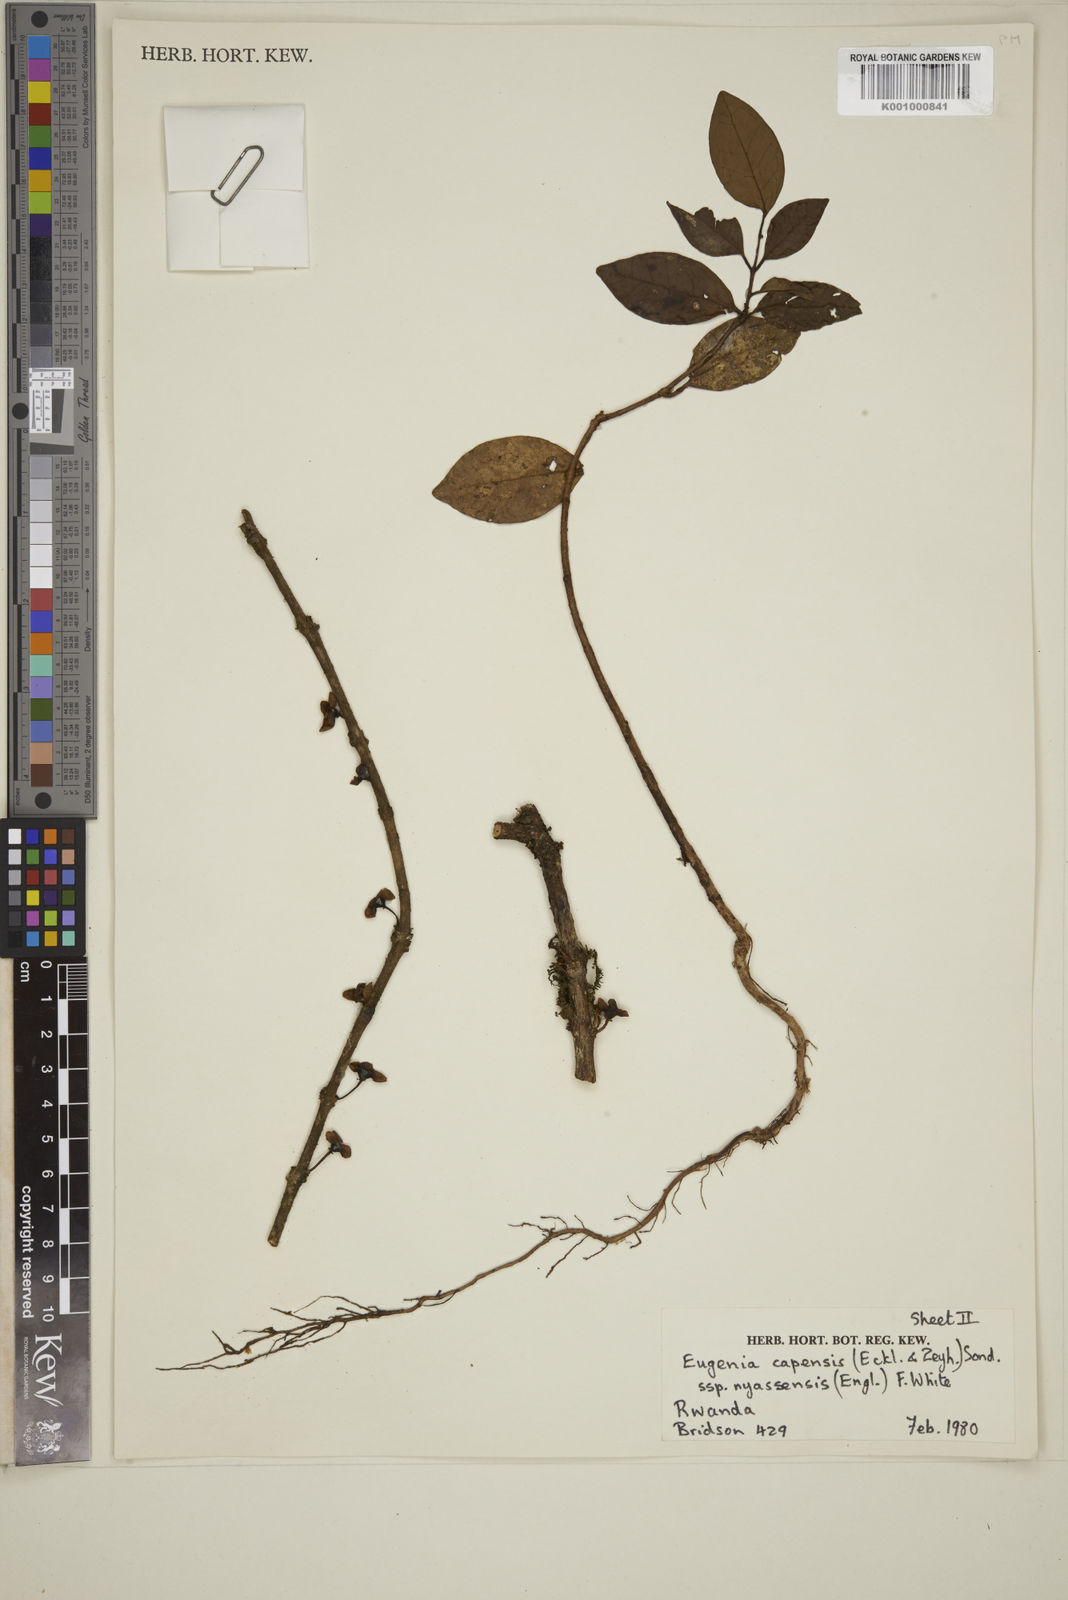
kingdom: Plantae
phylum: Tracheophyta
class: Magnoliopsida
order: Myrtales
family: Myrtaceae
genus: Eugenia
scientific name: Eugenia capensis
